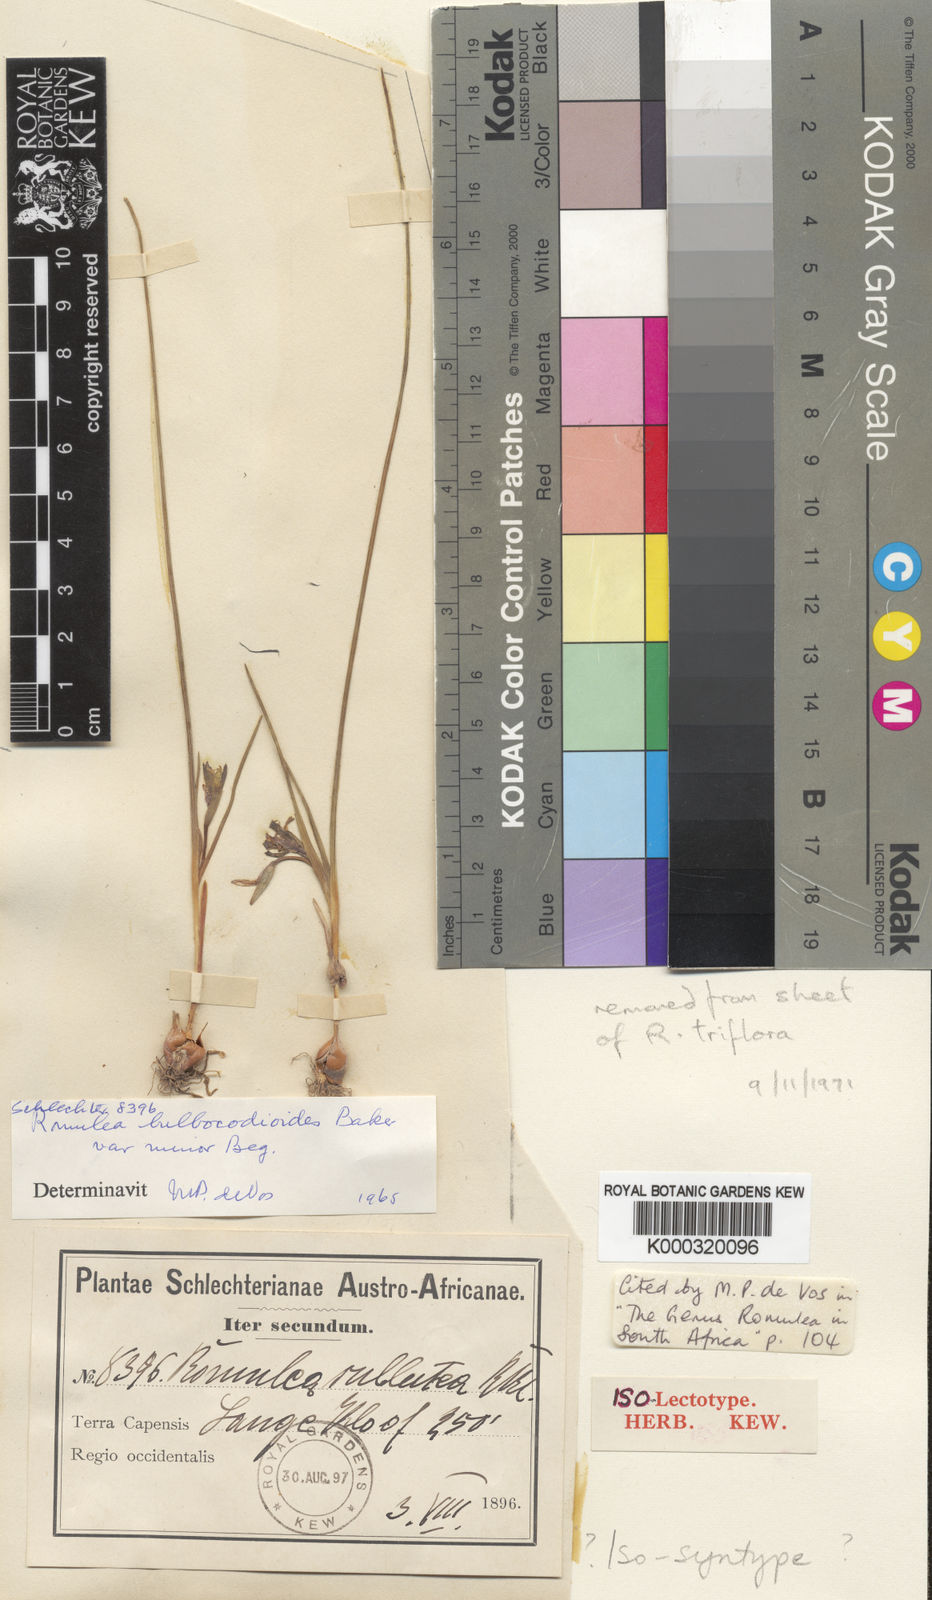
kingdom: Plantae
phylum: Tracheophyta
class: Liliopsida
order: Asparagales
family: Iridaceae
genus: Romulea
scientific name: Romulea flava
